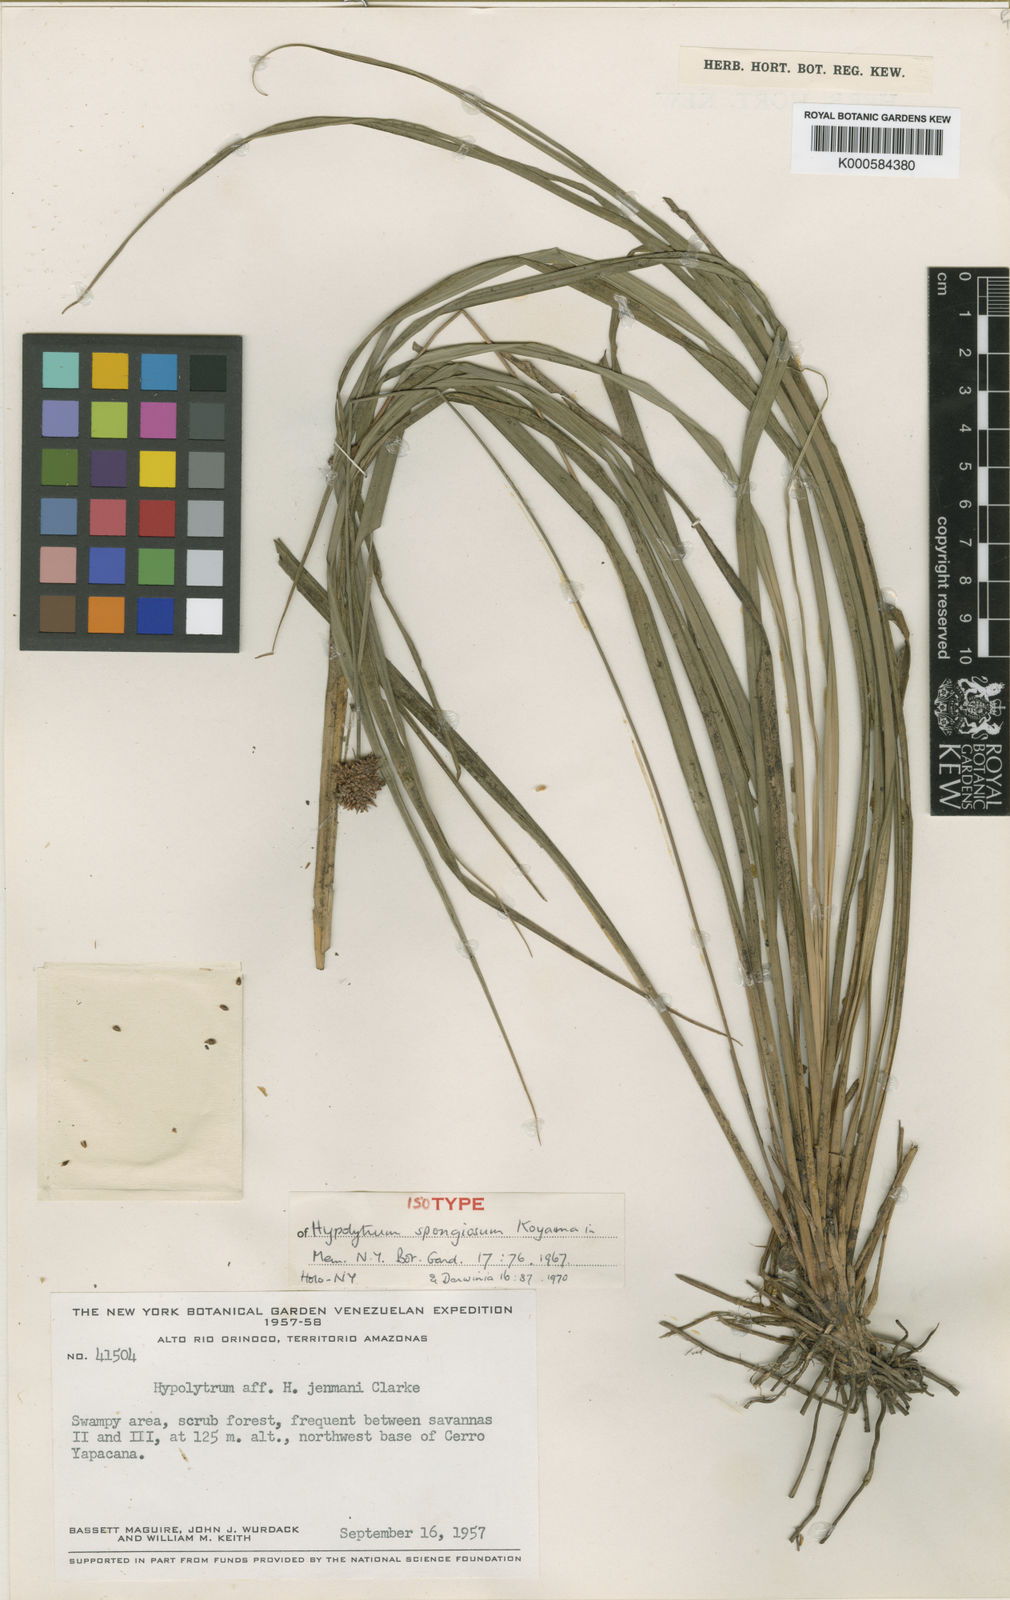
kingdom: Plantae
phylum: Tracheophyta
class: Liliopsida
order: Poales
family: Cyperaceae
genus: Hypolytrum
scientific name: Hypolytrum spongiosum
